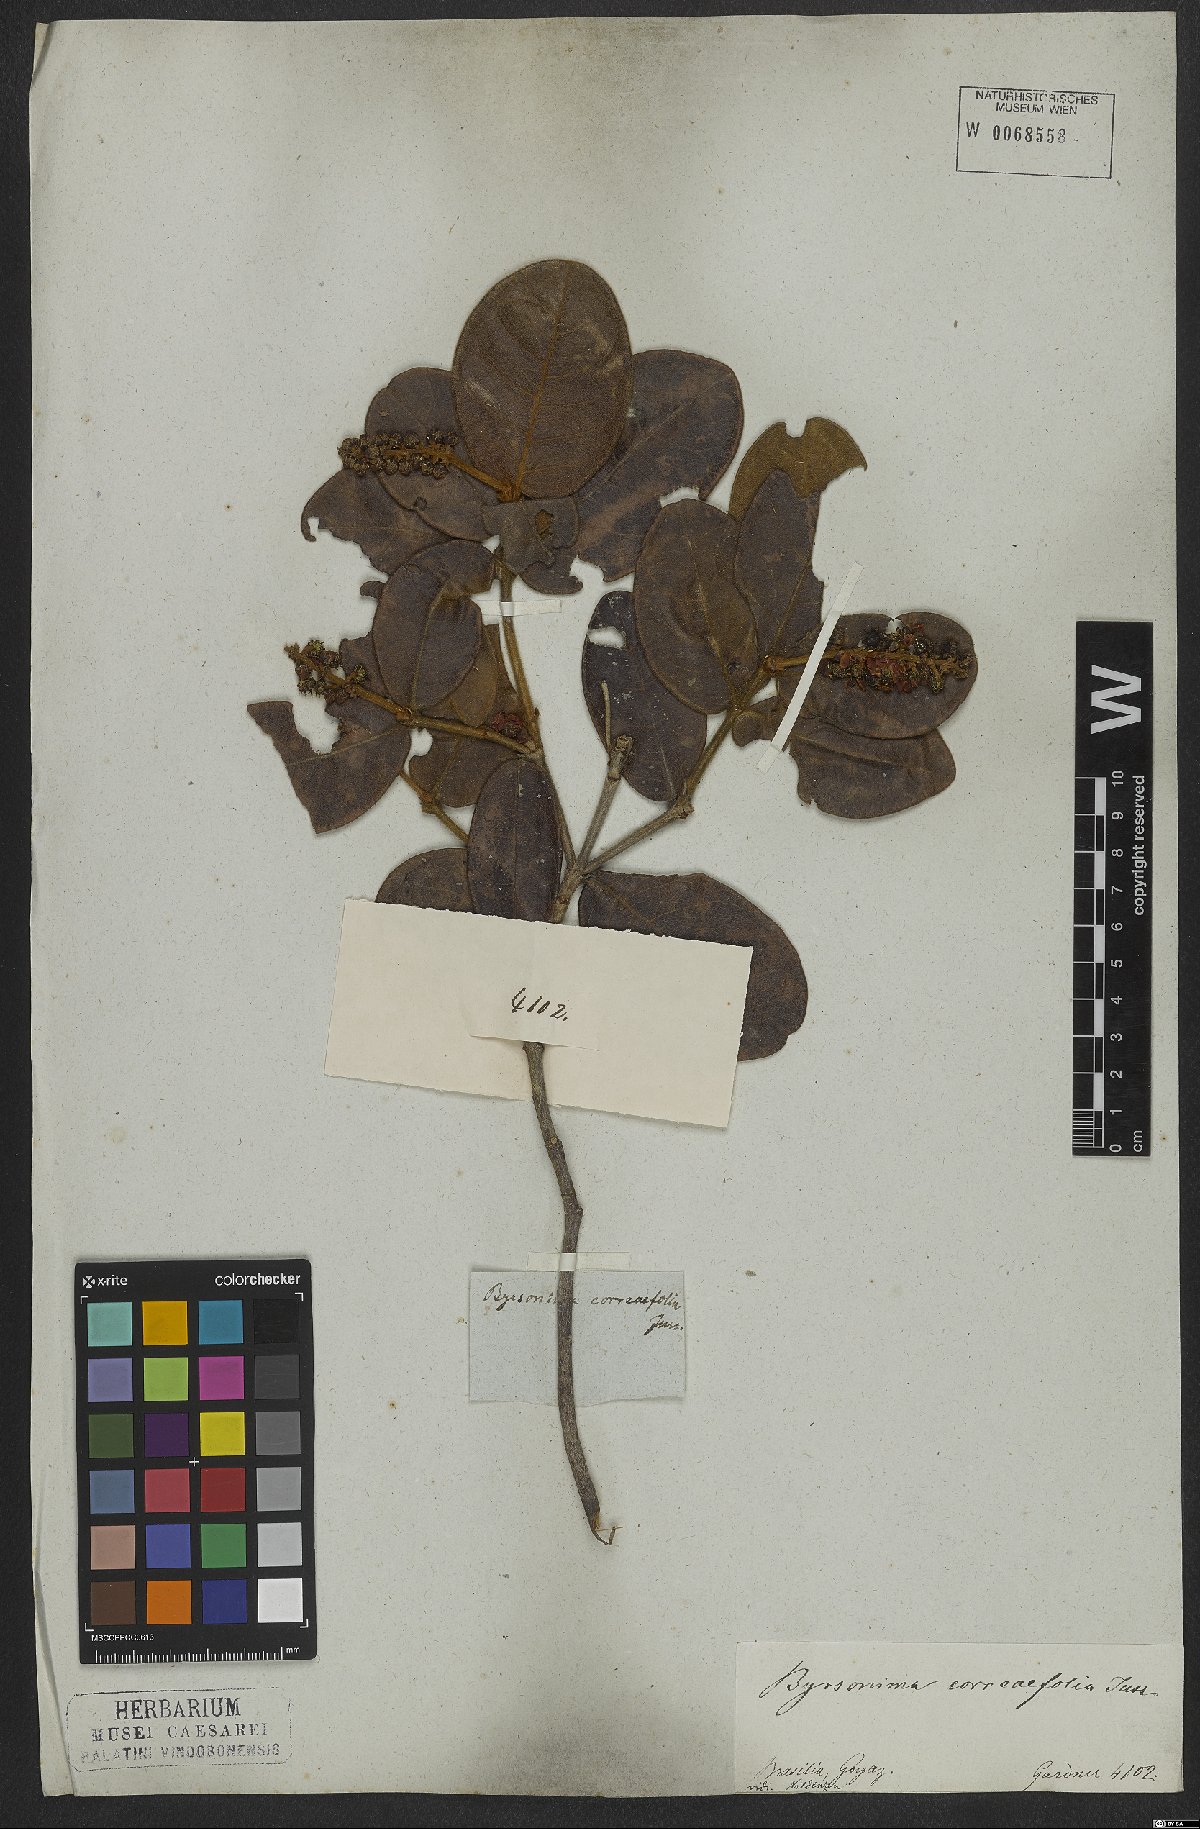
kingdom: Plantae
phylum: Tracheophyta
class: Magnoliopsida
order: Malpighiales
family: Malpighiaceae
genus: Byrsonima
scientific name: Byrsonima correifolia
